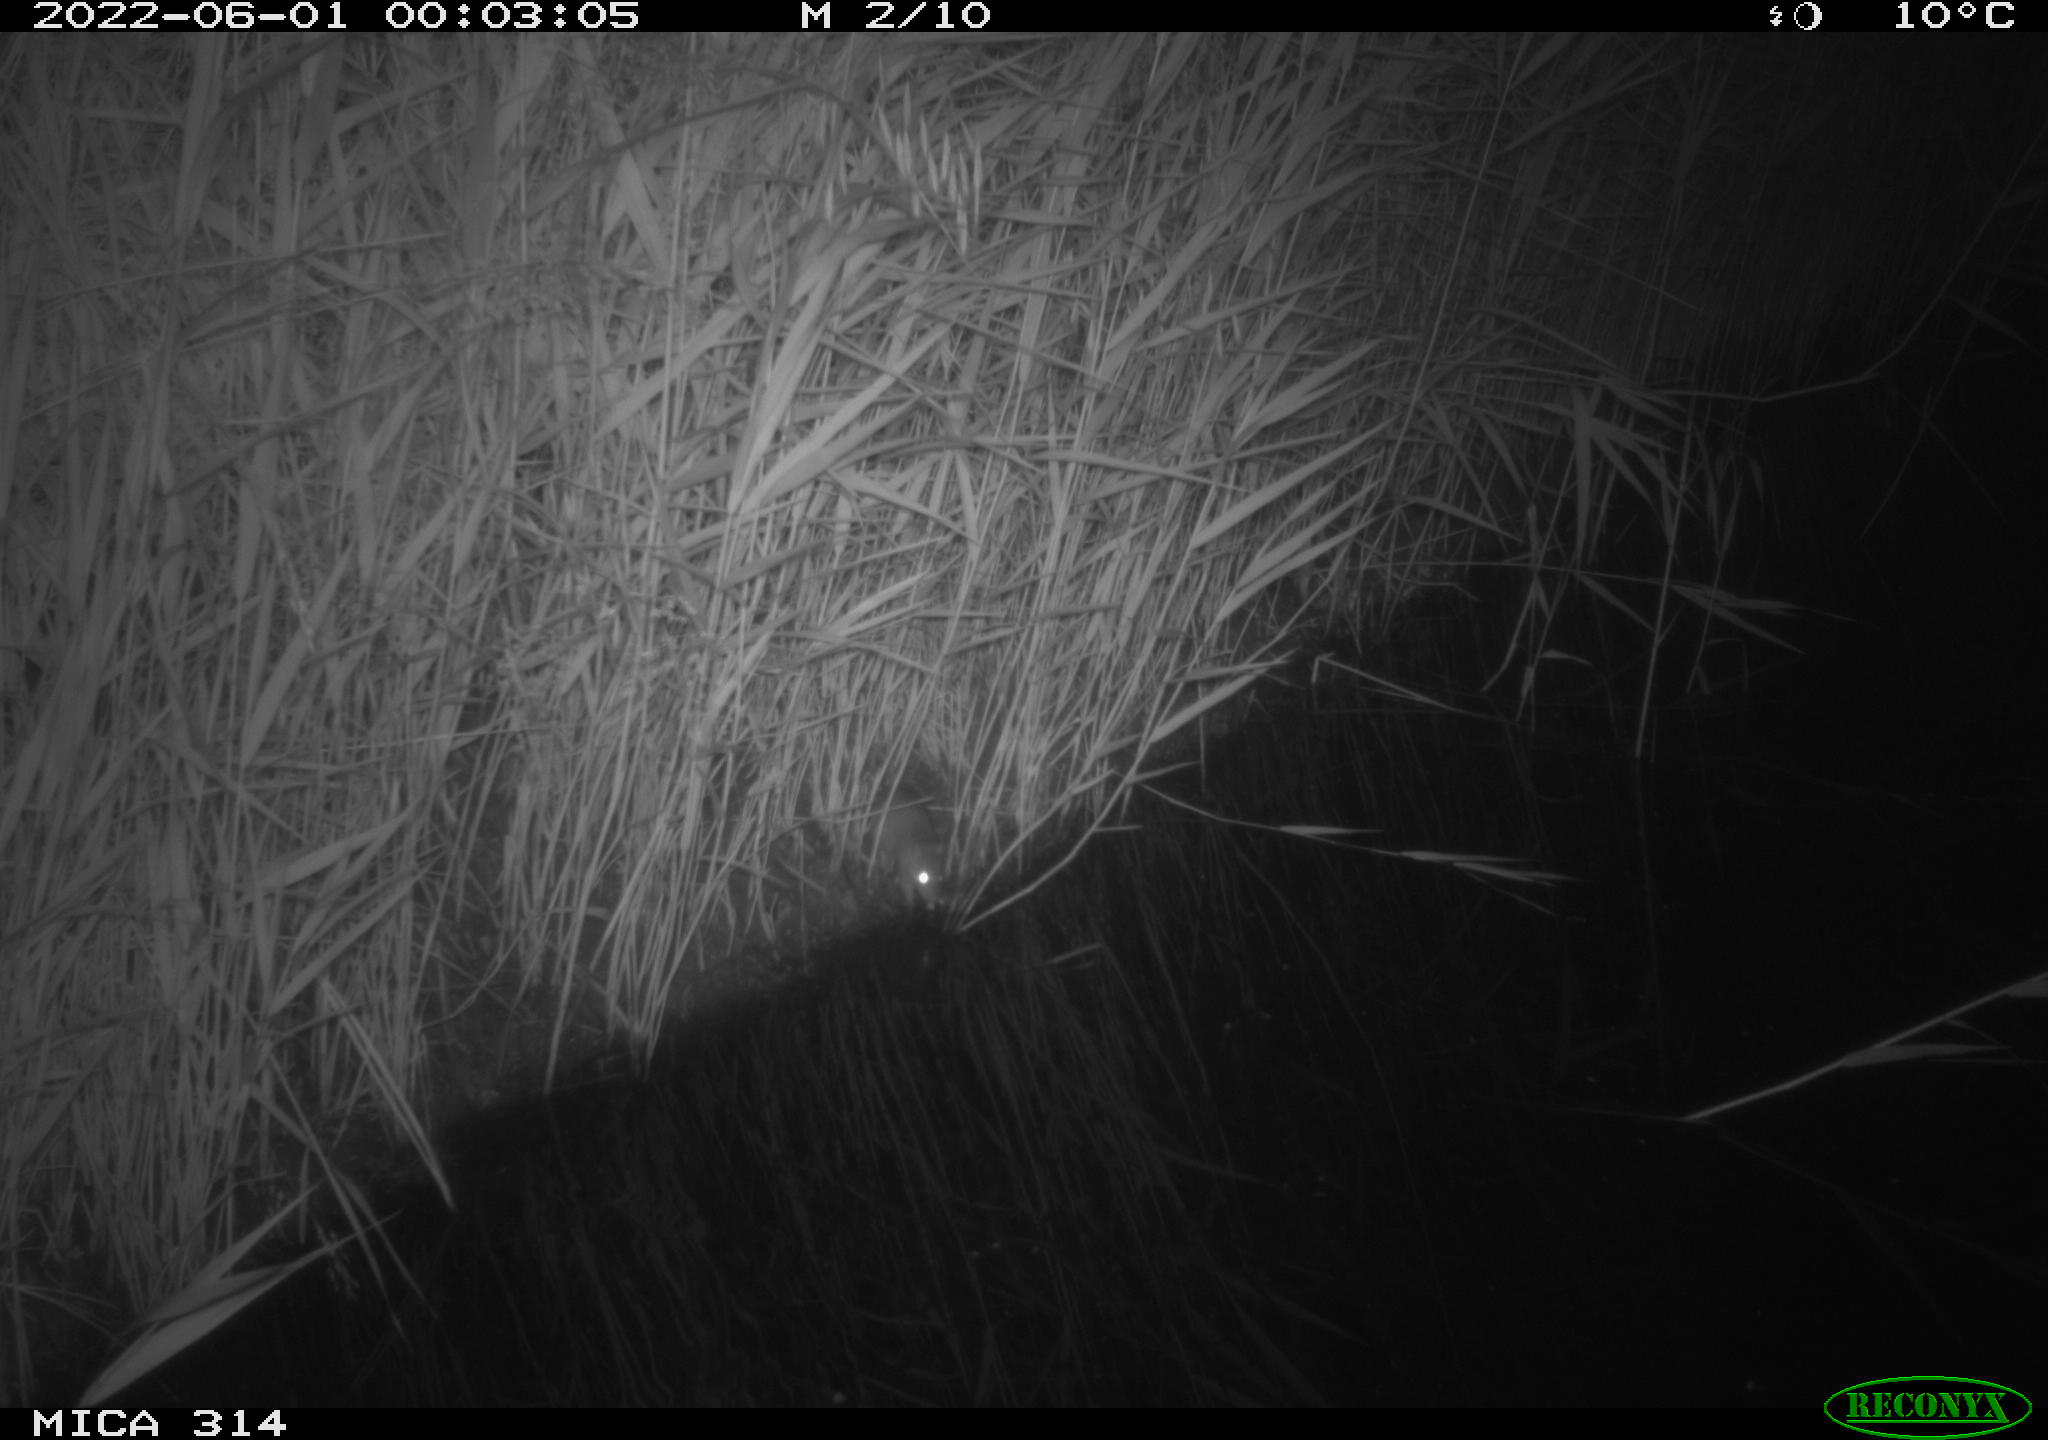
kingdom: Animalia
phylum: Chordata
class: Mammalia
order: Rodentia
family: Muridae
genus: Rattus
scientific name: Rattus norvegicus
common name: Brown rat
